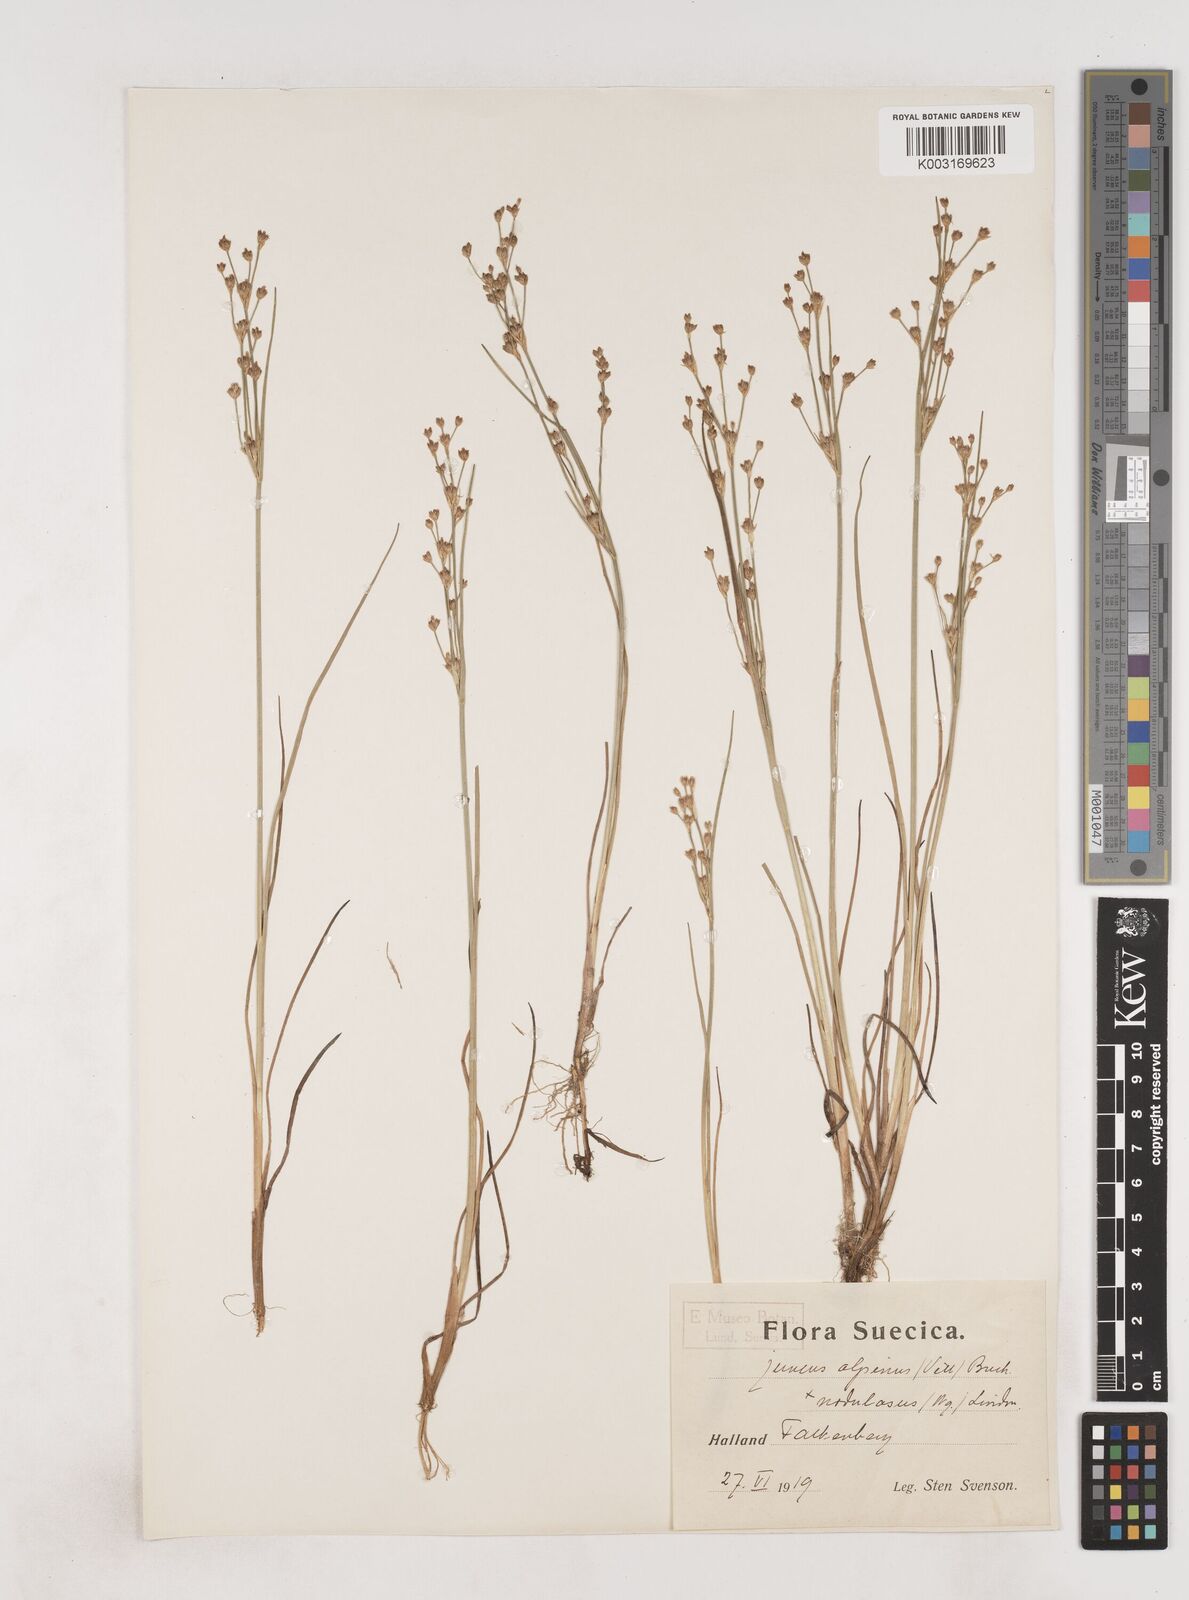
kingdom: Plantae
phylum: Tracheophyta
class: Liliopsida
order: Poales
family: Juncaceae
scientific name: Juncaceae
